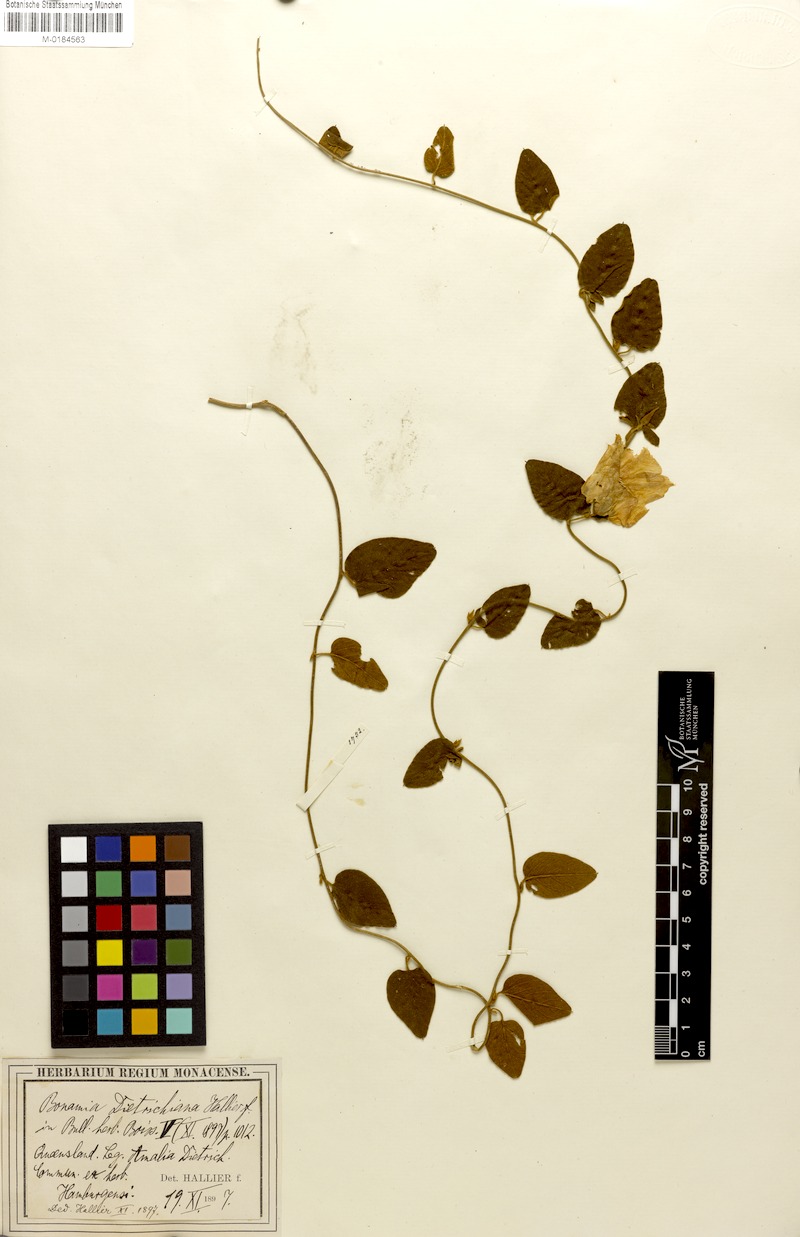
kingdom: Plantae
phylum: Tracheophyta
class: Magnoliopsida
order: Solanales
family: Convolvulaceae
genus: Bonamia
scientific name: Bonamia dietrichiana
